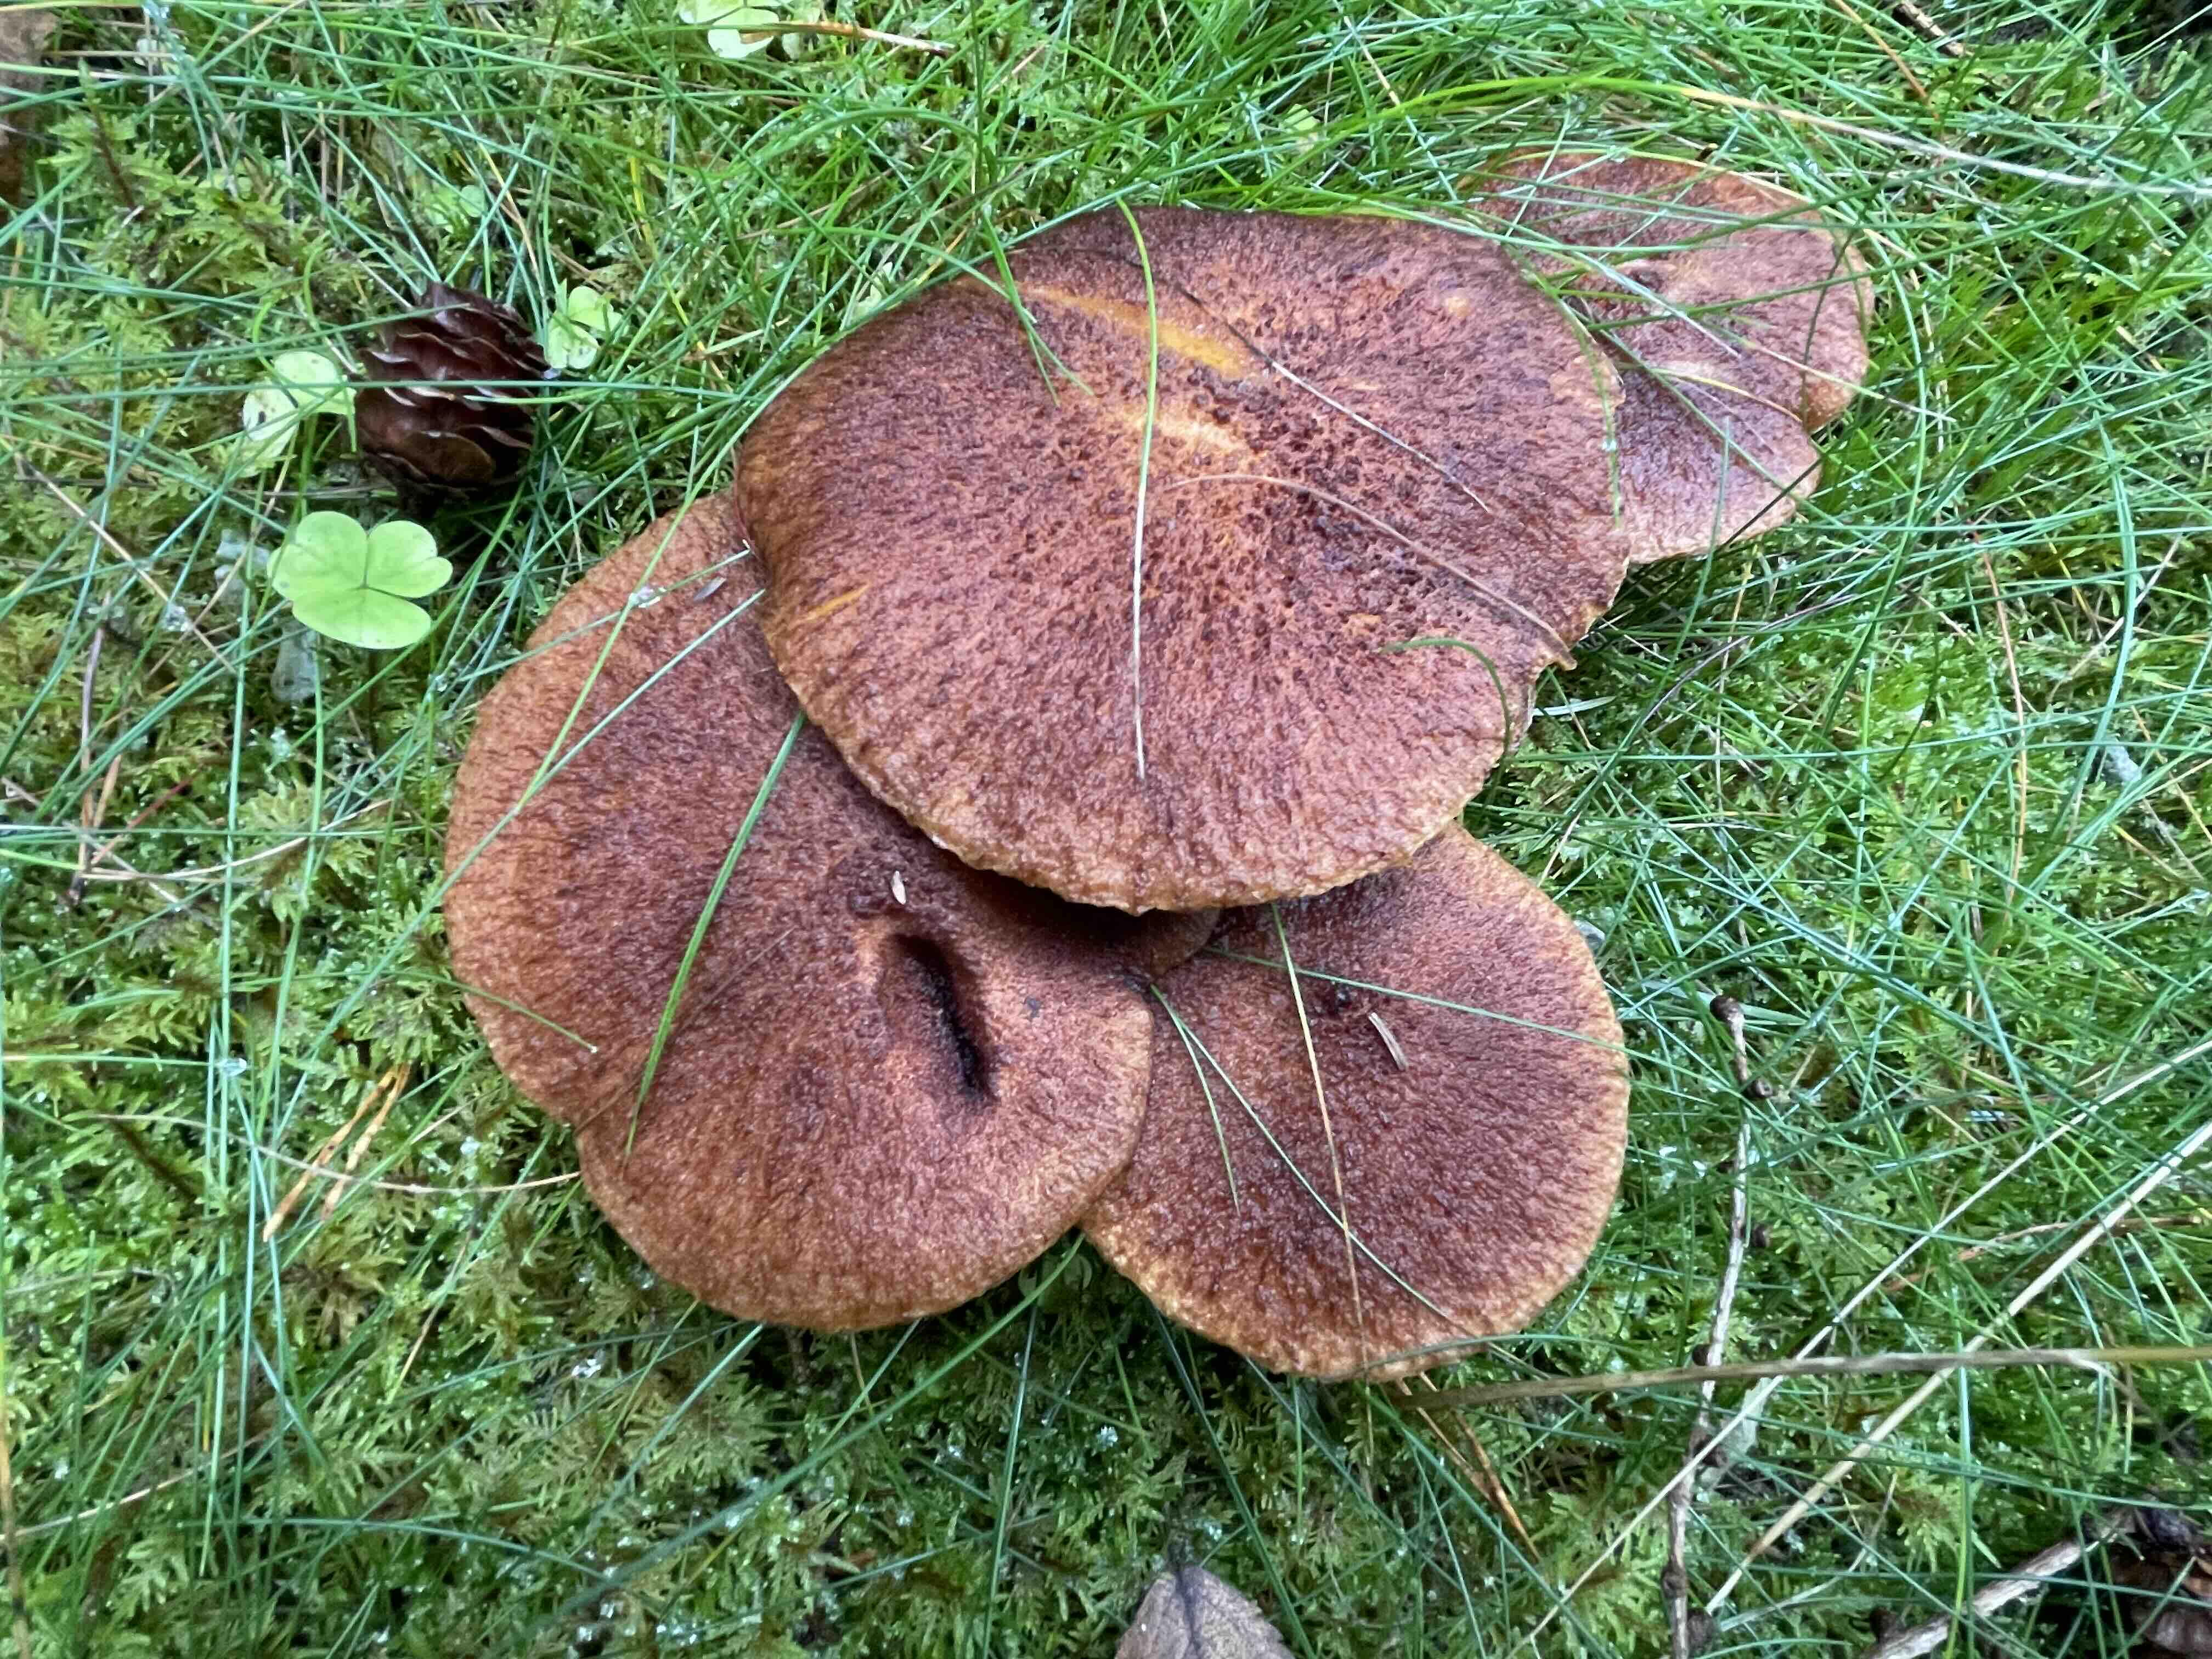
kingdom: Fungi
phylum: Basidiomycota
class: Agaricomycetes
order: Boletales
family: Suillaceae
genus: Suillus
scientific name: Suillus cavipes
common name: hulstokket slimrørhat
